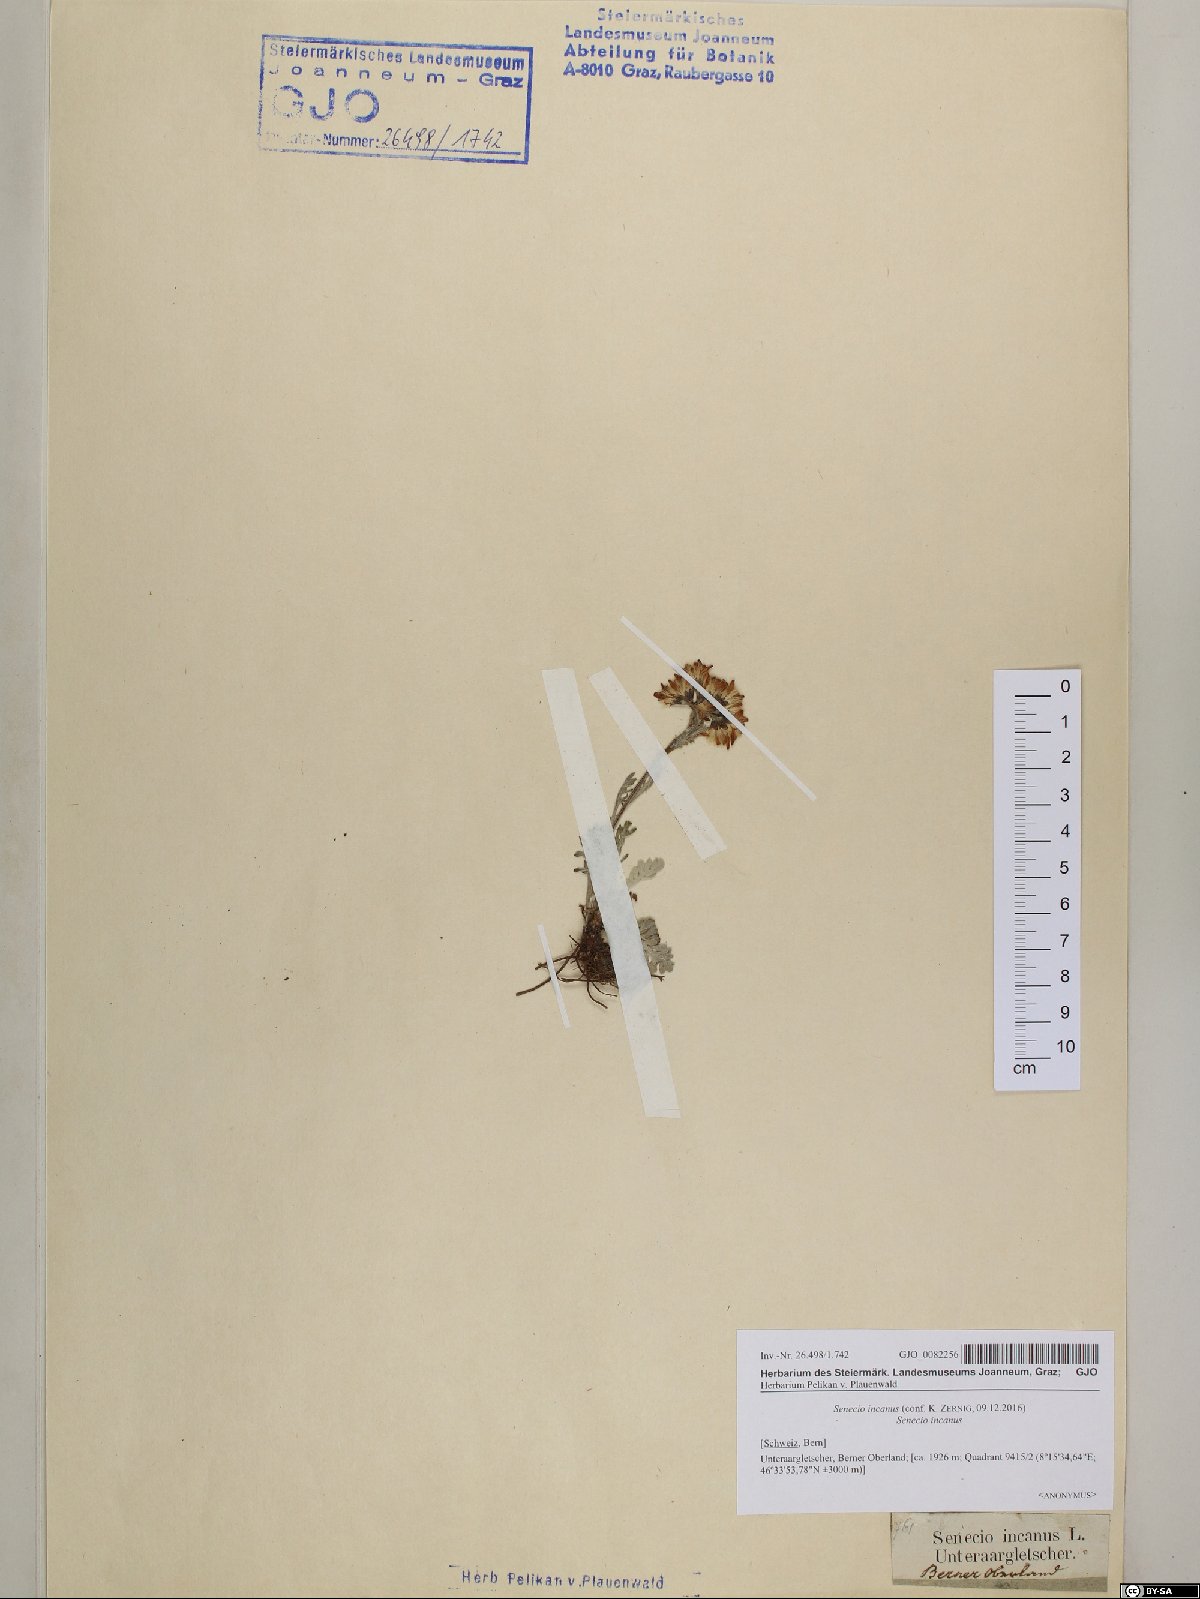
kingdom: Plantae
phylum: Tracheophyta
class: Magnoliopsida
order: Asterales
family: Asteraceae
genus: Jacobaea
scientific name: Jacobaea incana
